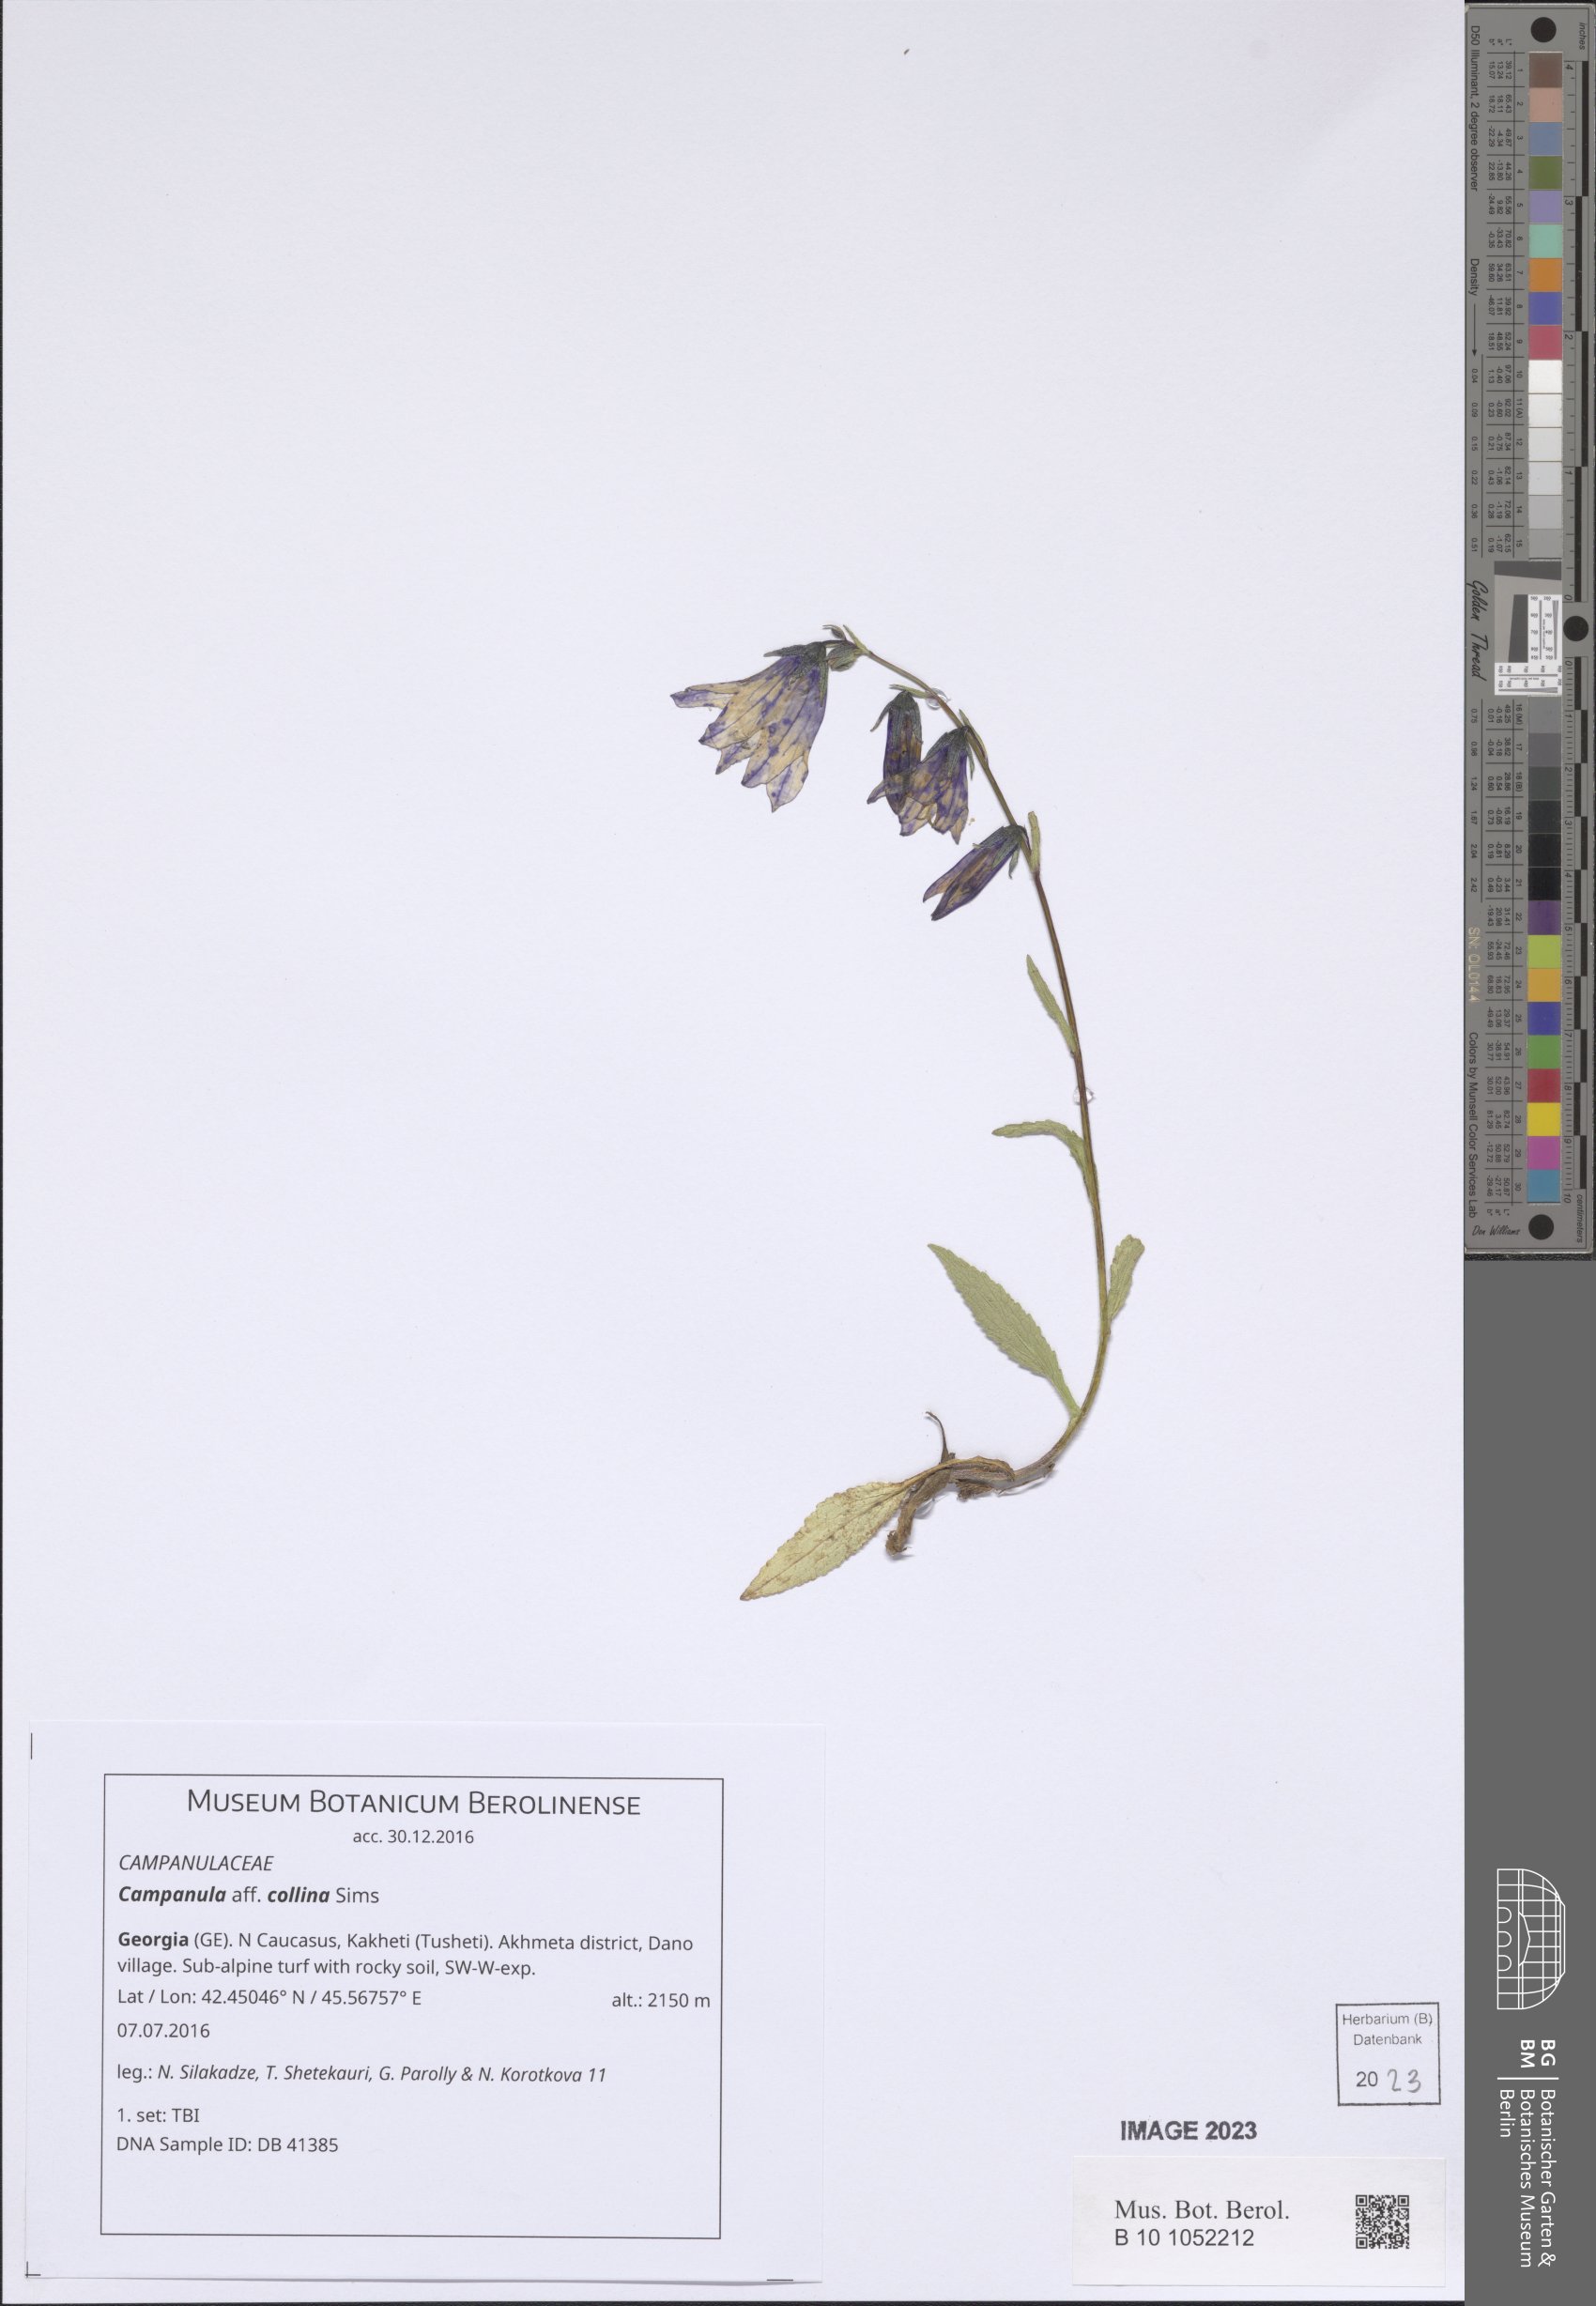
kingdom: Plantae
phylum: Tracheophyta
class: Magnoliopsida
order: Asterales
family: Campanulaceae
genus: Campanula
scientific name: Campanula collina
